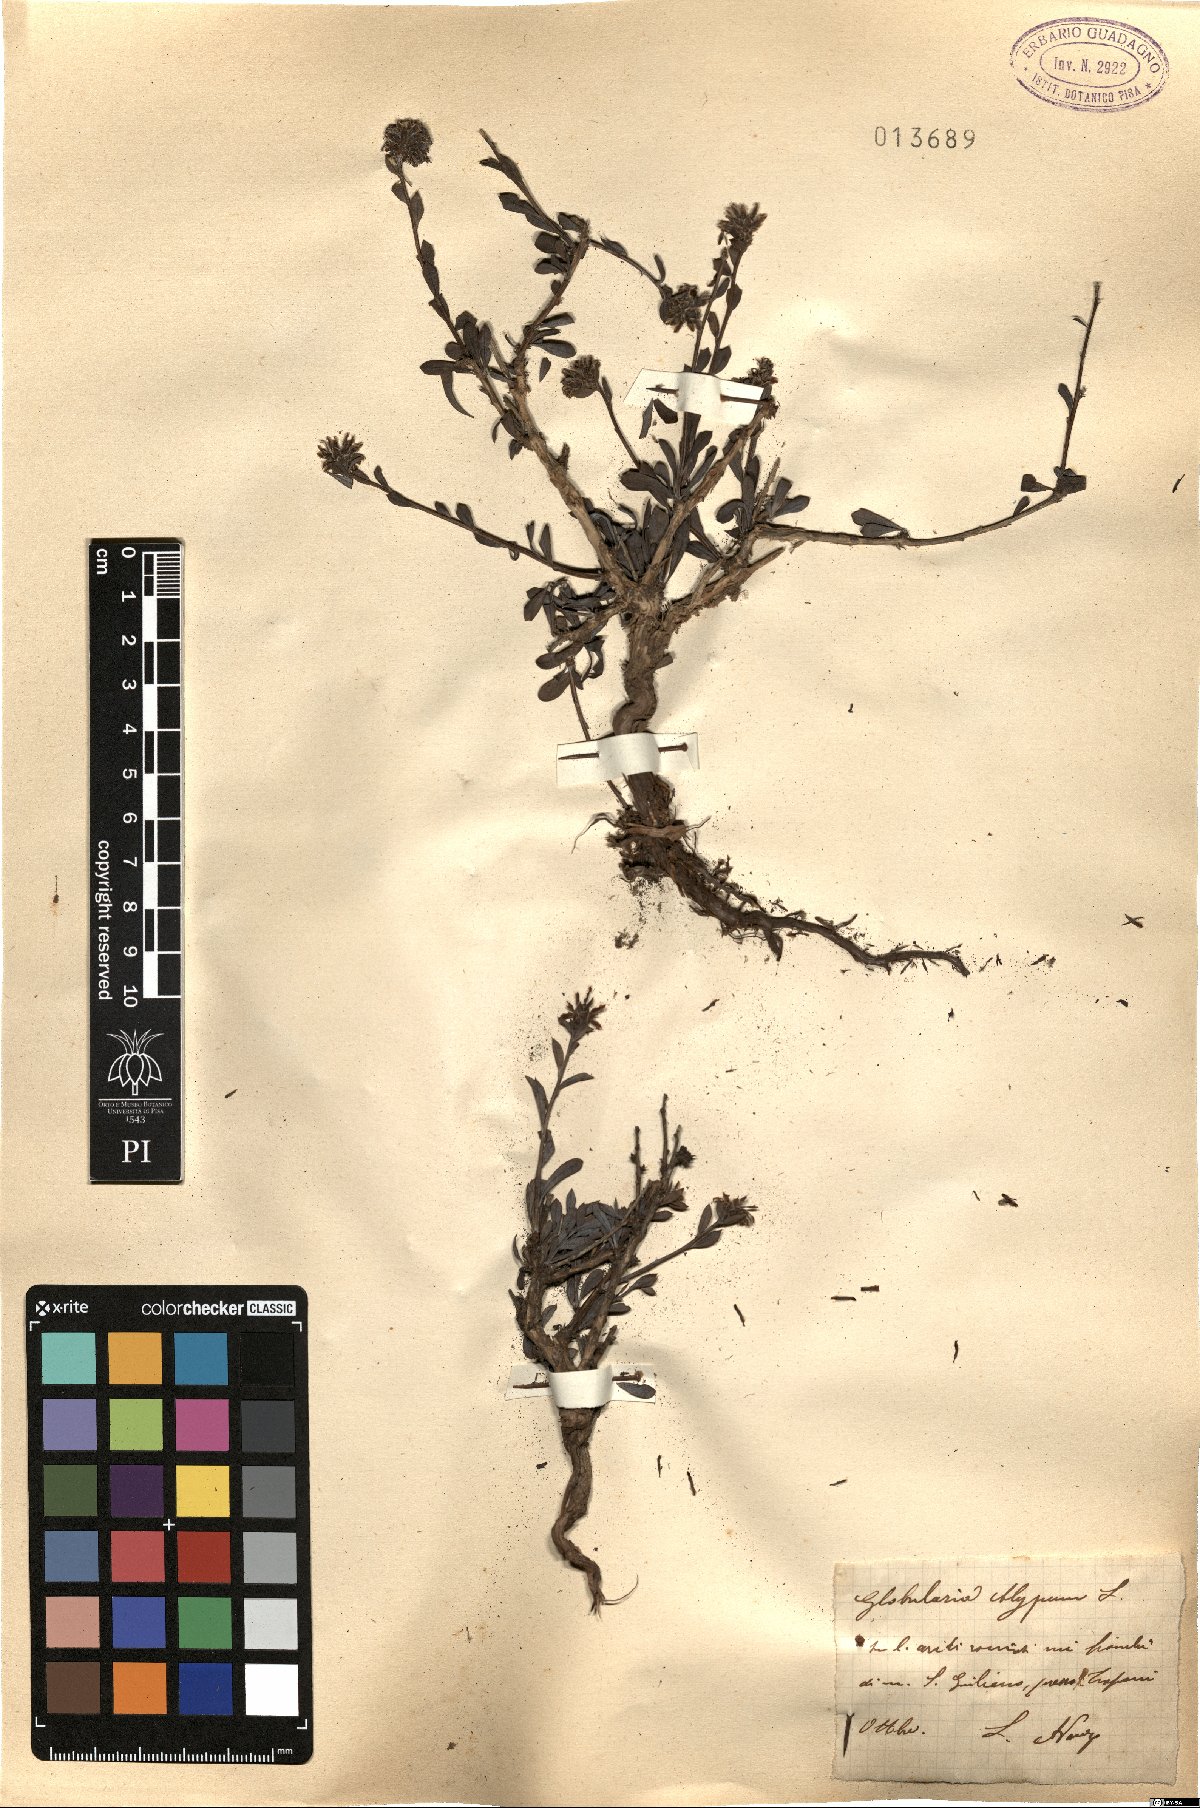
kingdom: Plantae
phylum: Tracheophyta
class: Magnoliopsida
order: Lamiales
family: Plantaginaceae
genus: Globularia
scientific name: Globularia alypum
